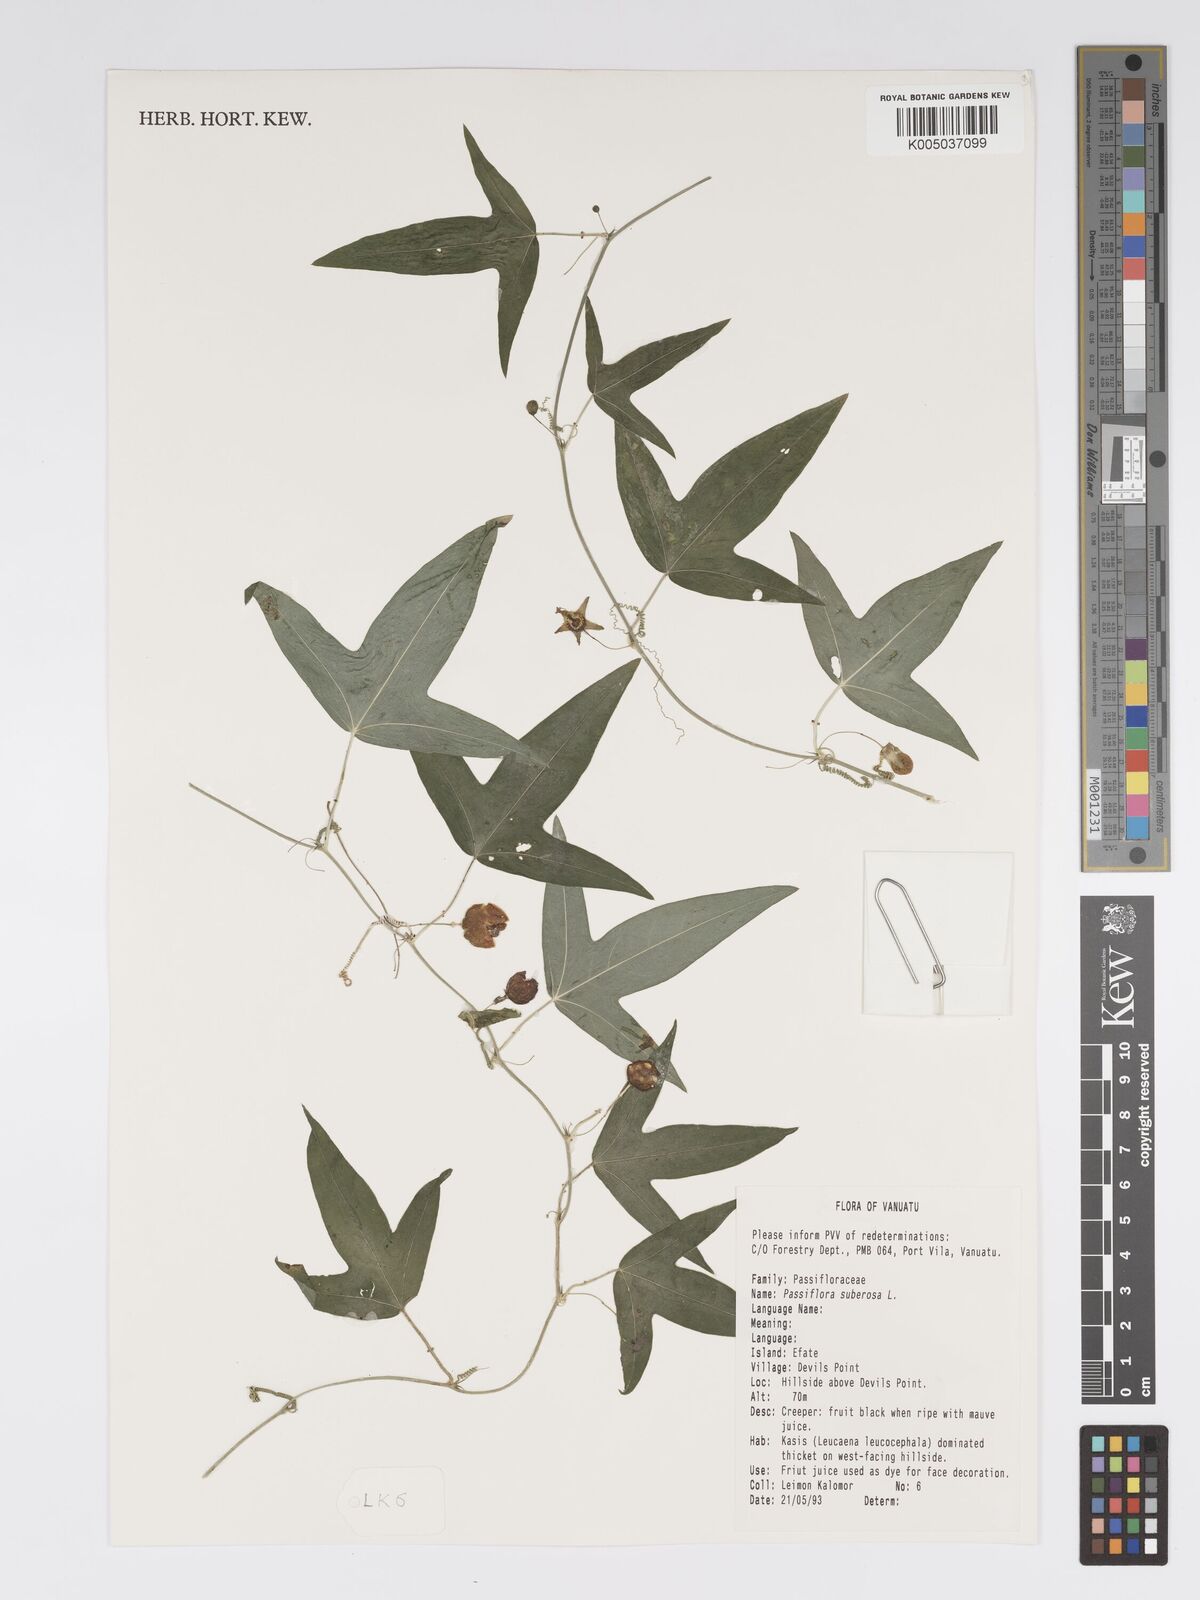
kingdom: Plantae
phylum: Tracheophyta
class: Magnoliopsida
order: Malpighiales
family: Passifloraceae
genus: Passiflora
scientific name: Passiflora suberosa
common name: Wild passionfruit
